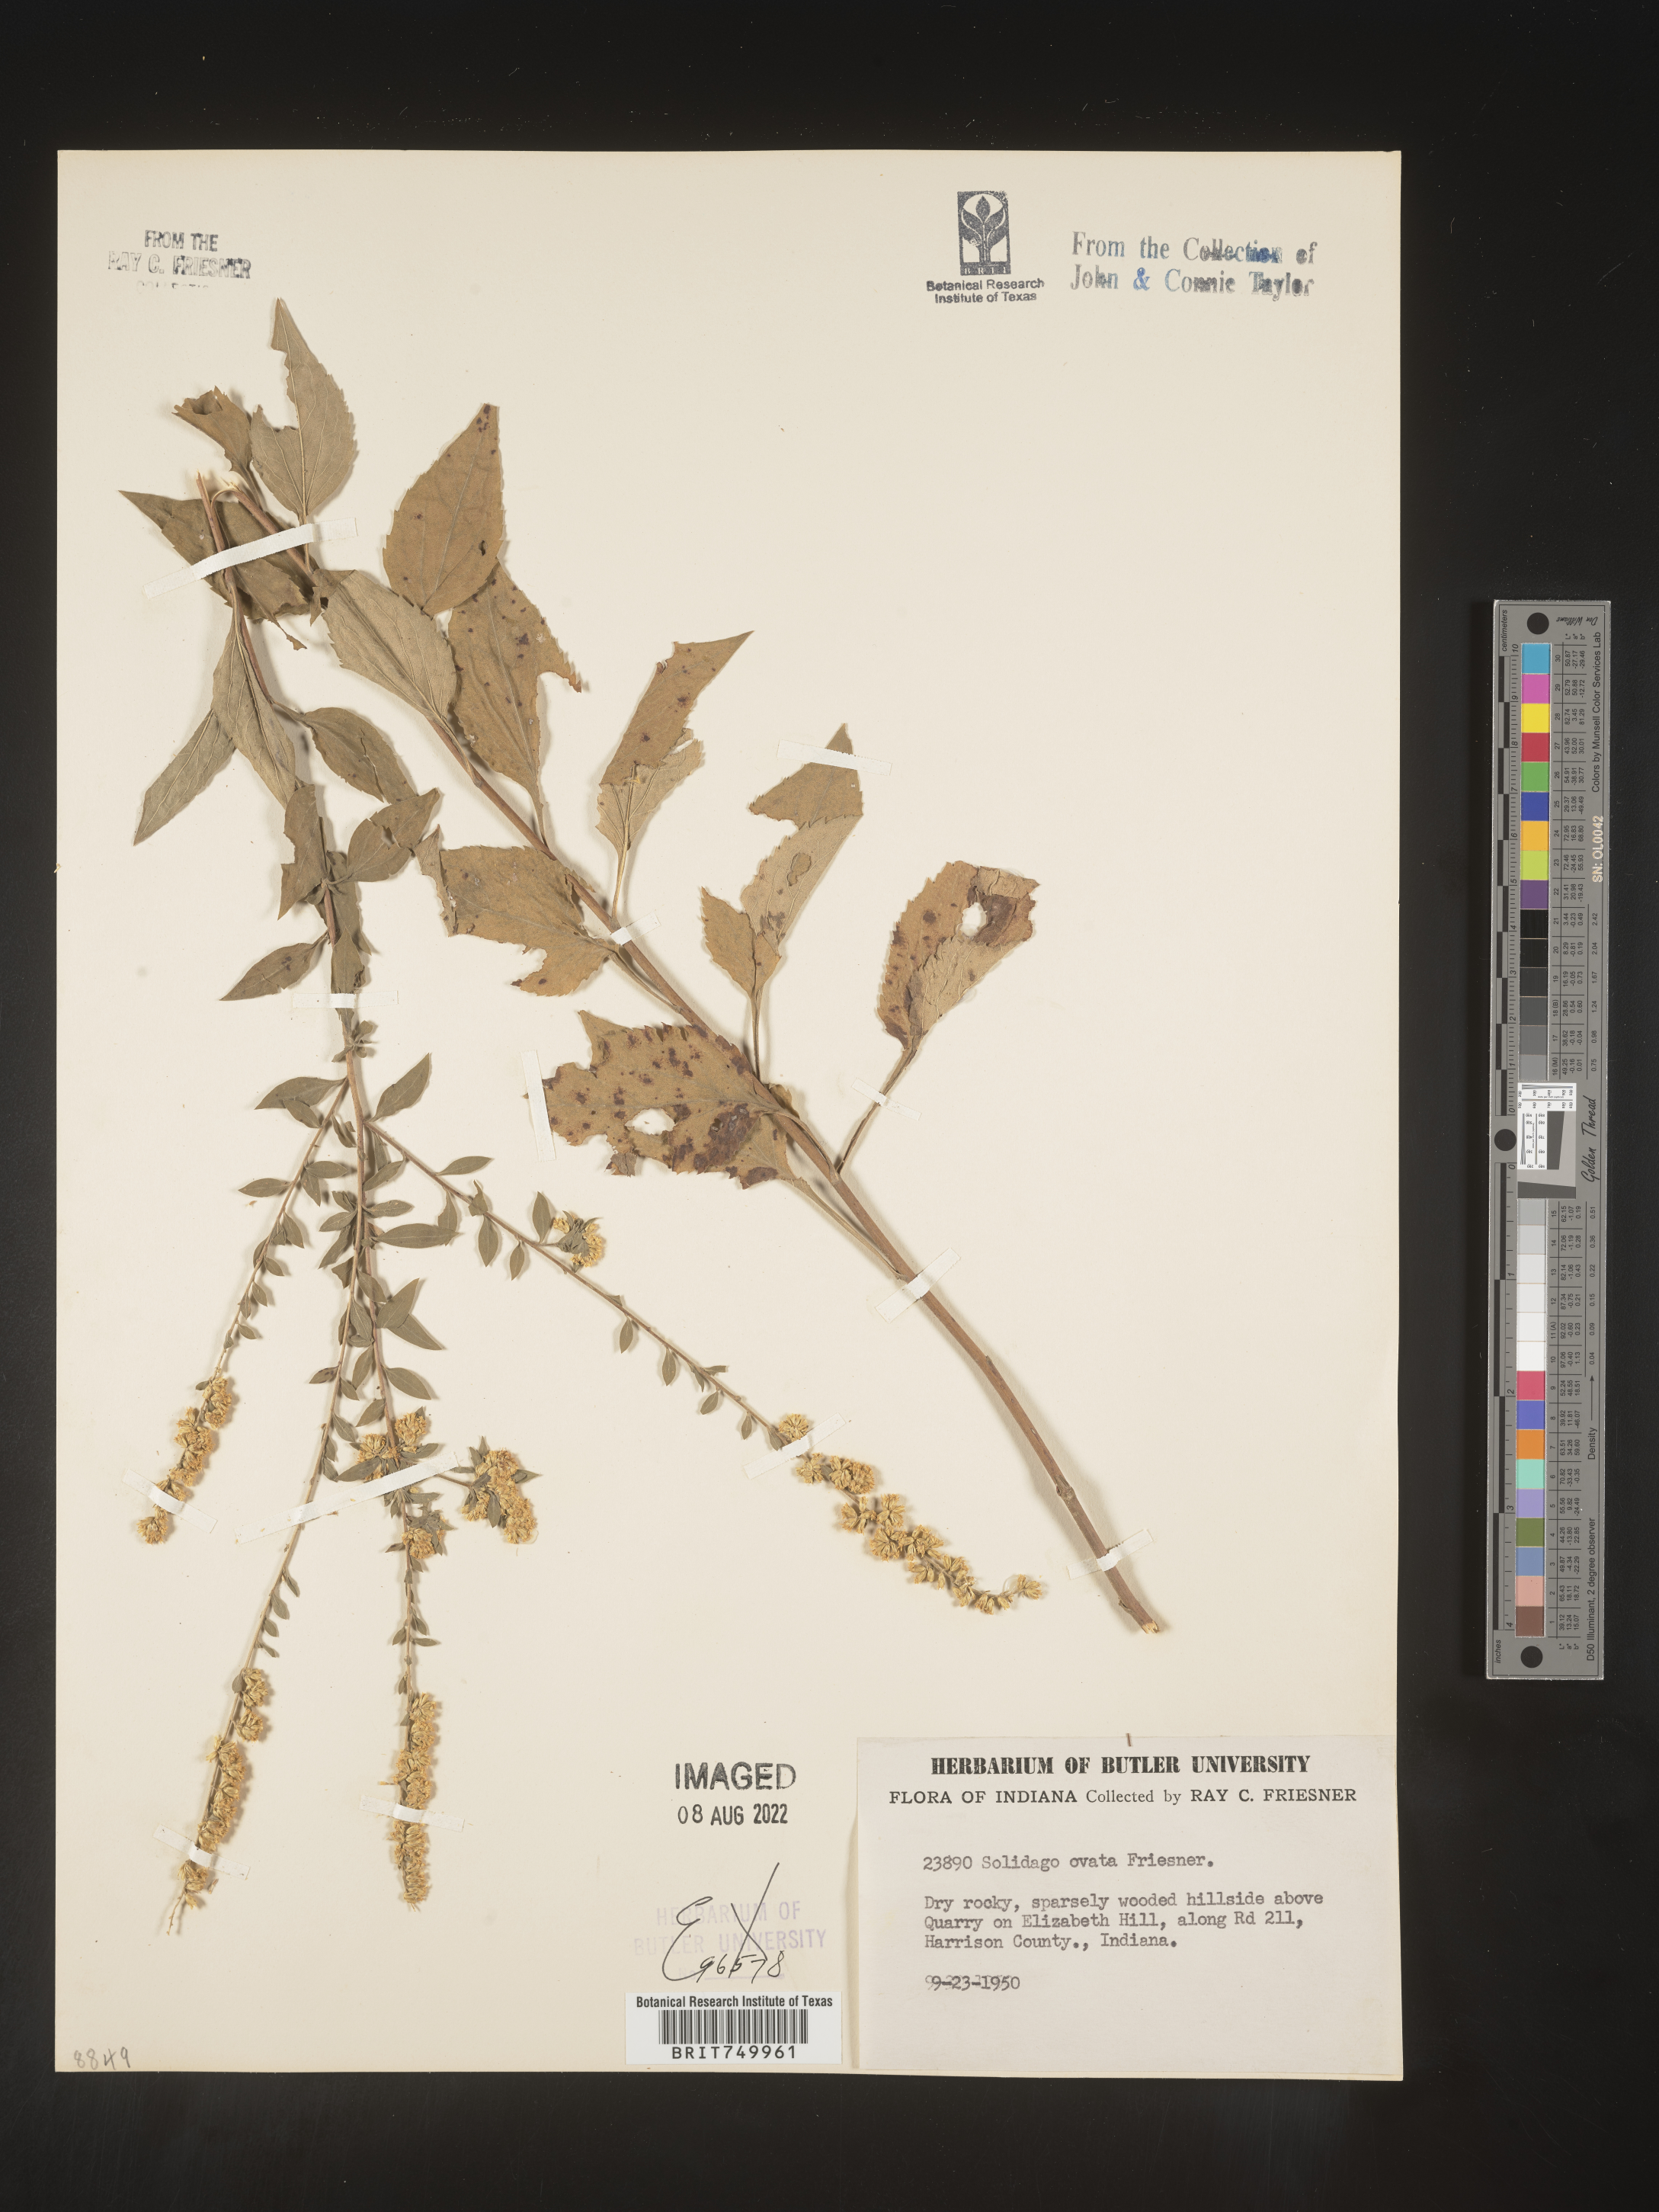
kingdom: Plantae
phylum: Tracheophyta
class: Magnoliopsida
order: Asterales
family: Asteraceae
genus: Solidago
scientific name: Solidago ulmifolia
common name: Elm-leaf goldenrod
